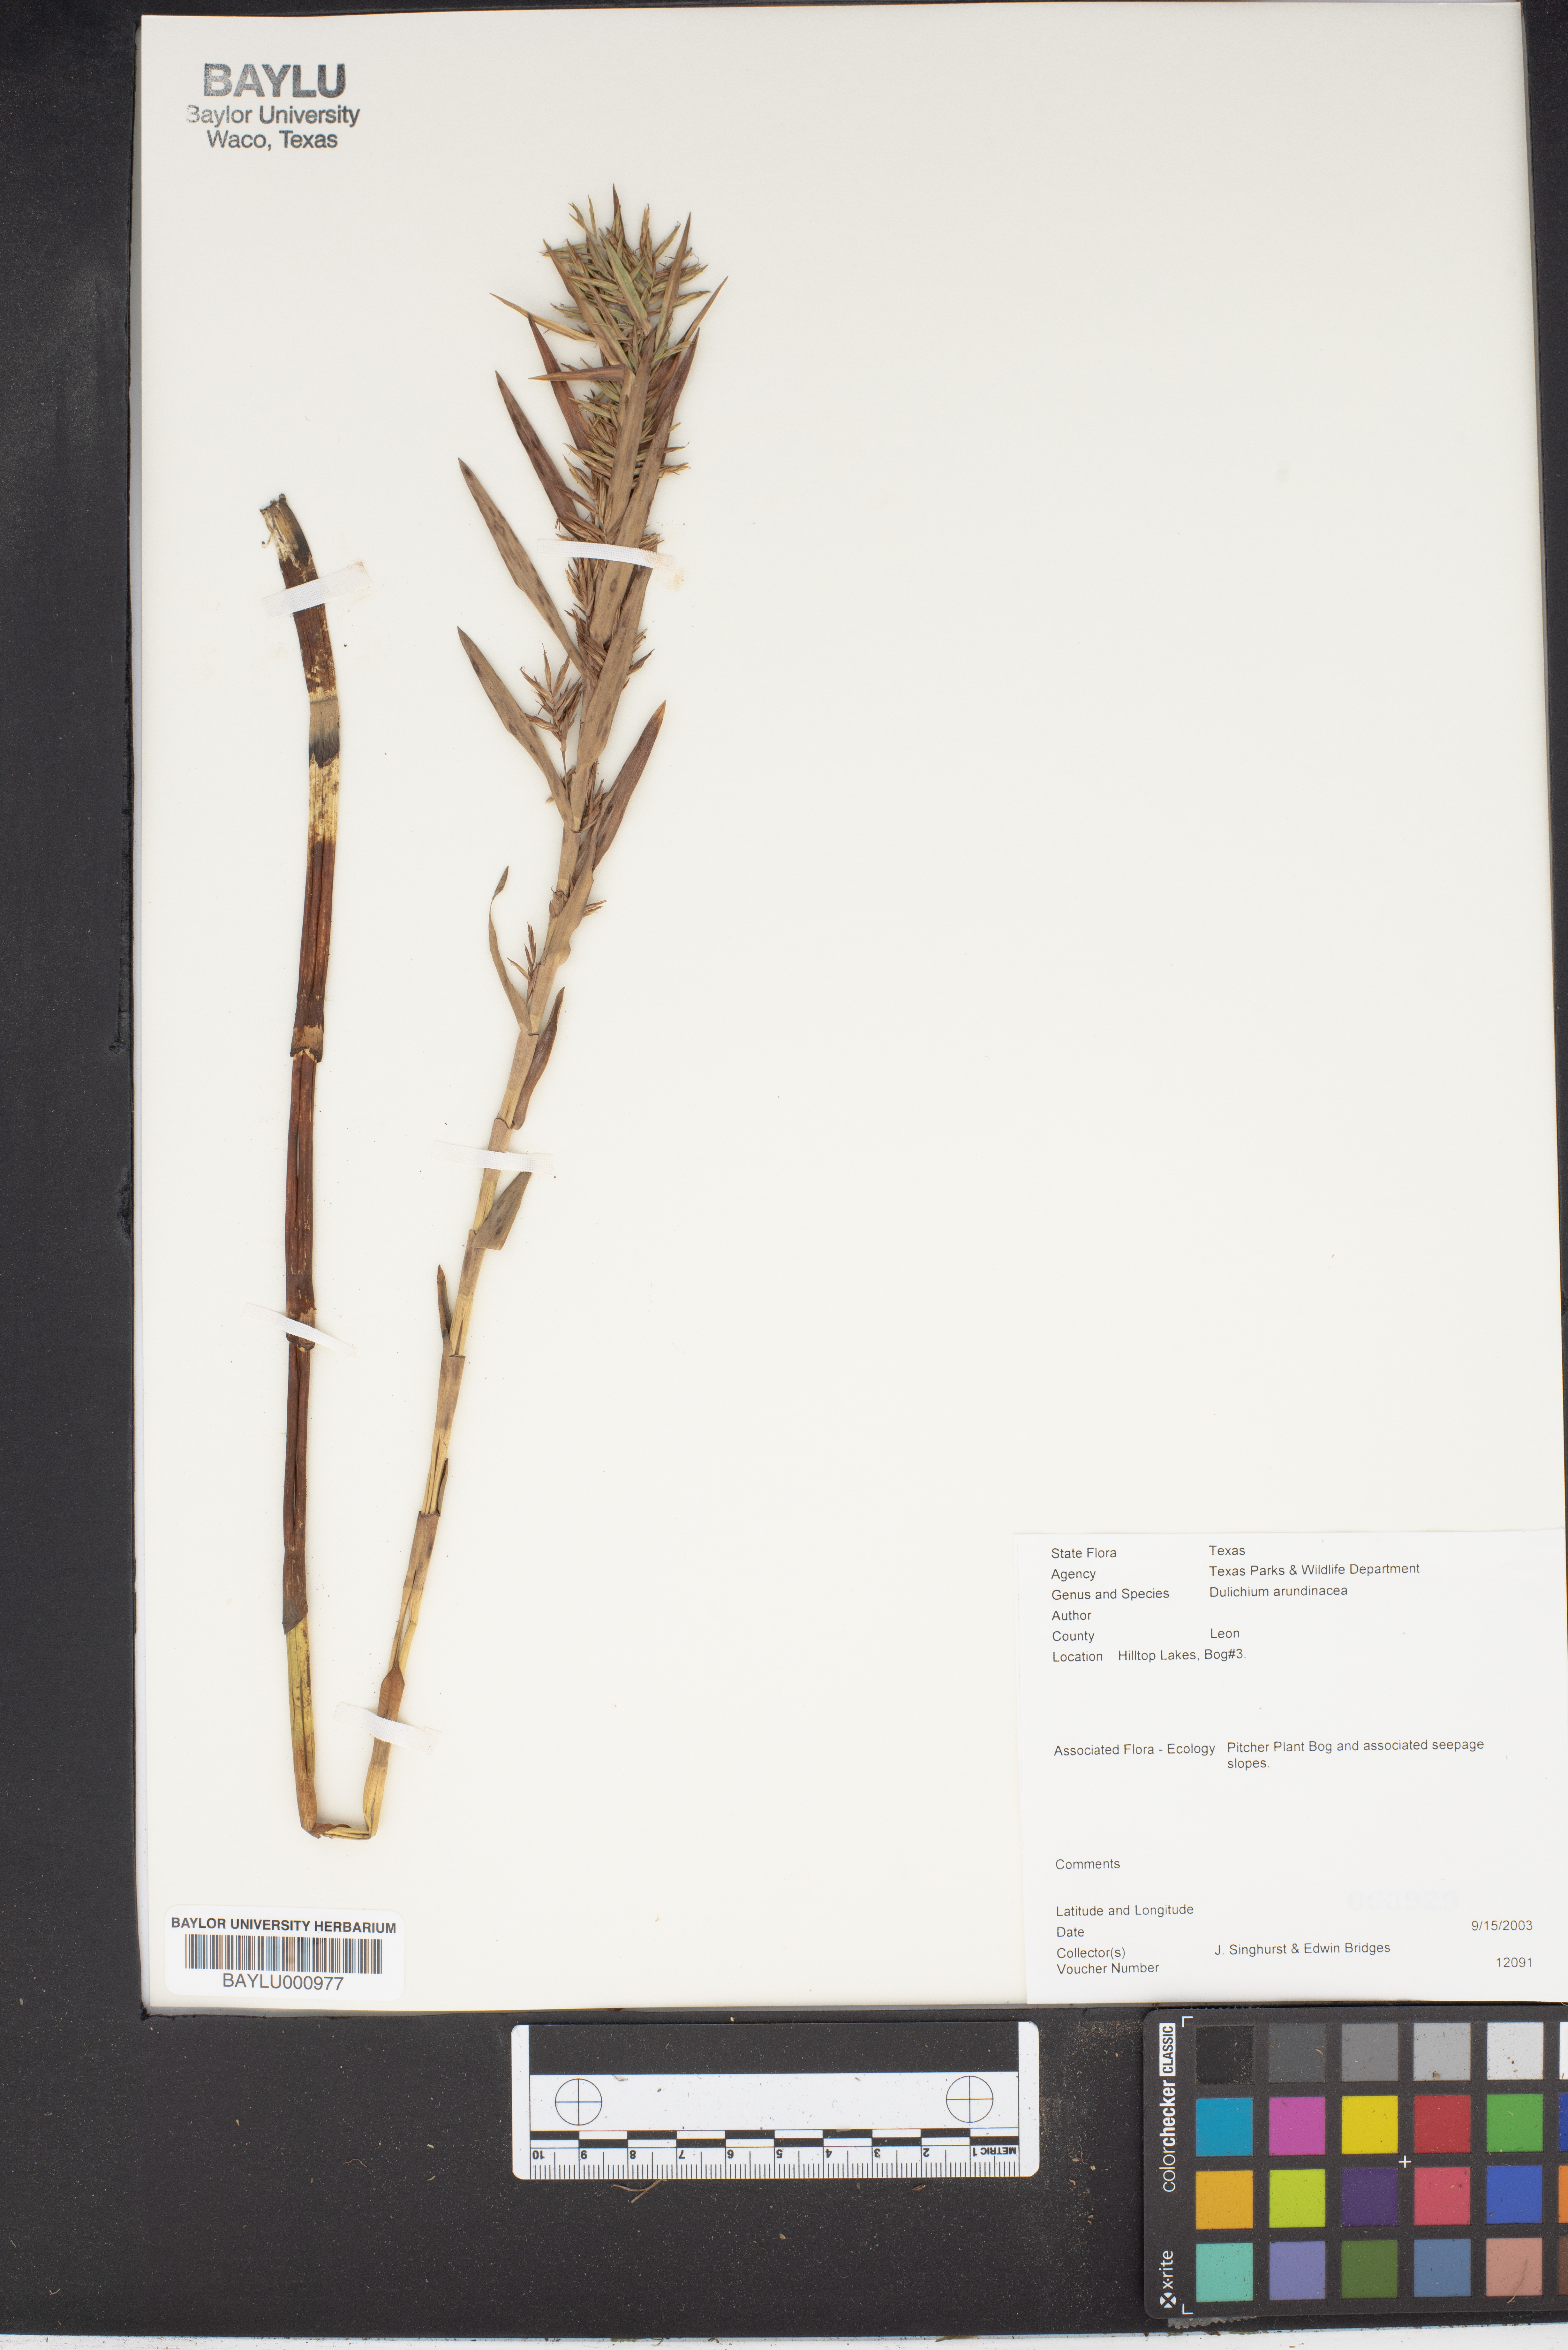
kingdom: Plantae
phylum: Tracheophyta
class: Liliopsida
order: Poales
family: Cyperaceae
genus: Dulichium
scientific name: Dulichium arundinaceum
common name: Three-way sedge
